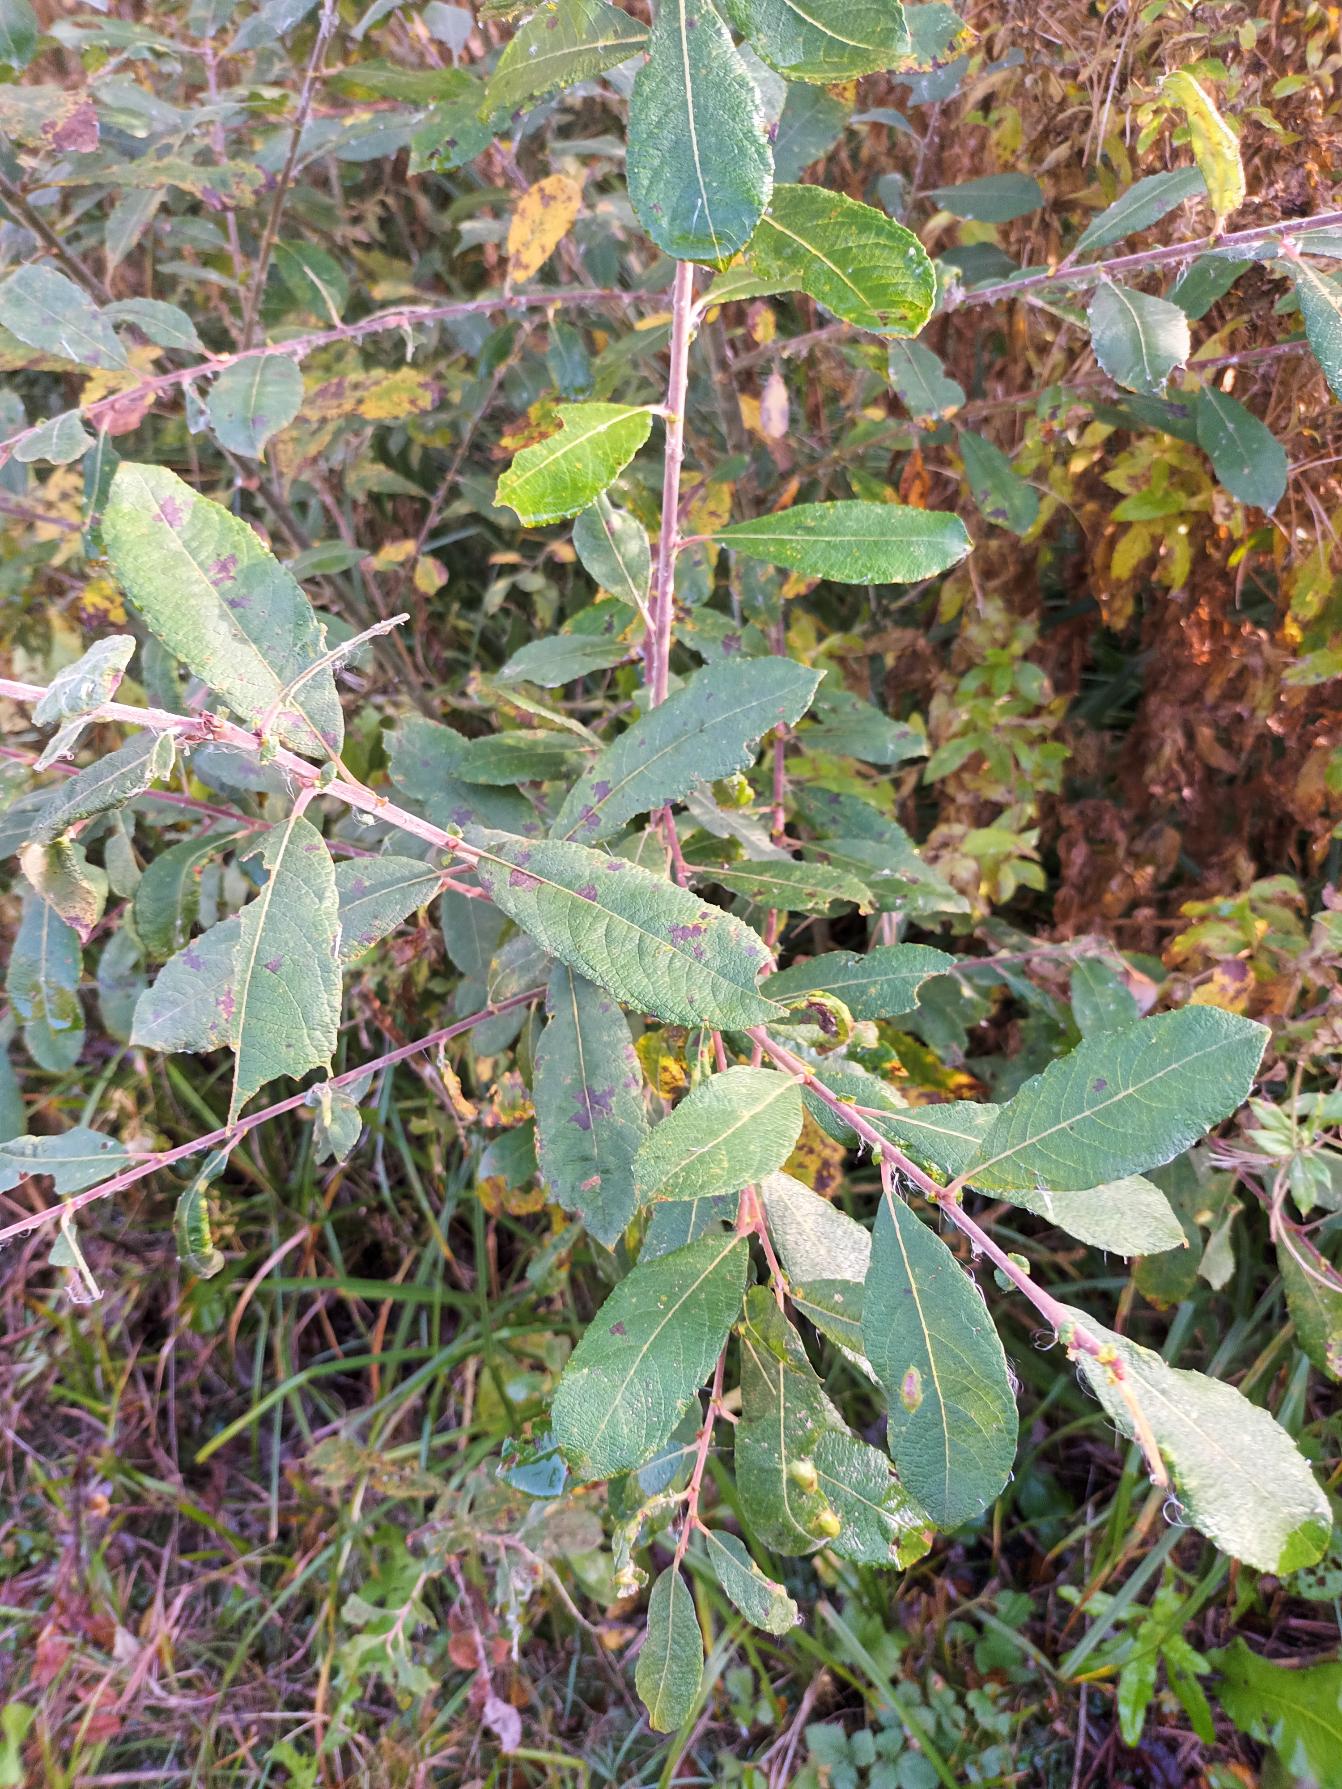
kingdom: Plantae
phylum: Tracheophyta
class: Magnoliopsida
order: Malpighiales
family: Salicaceae
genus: Salix
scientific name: Salix cinerea
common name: Grå-pil
